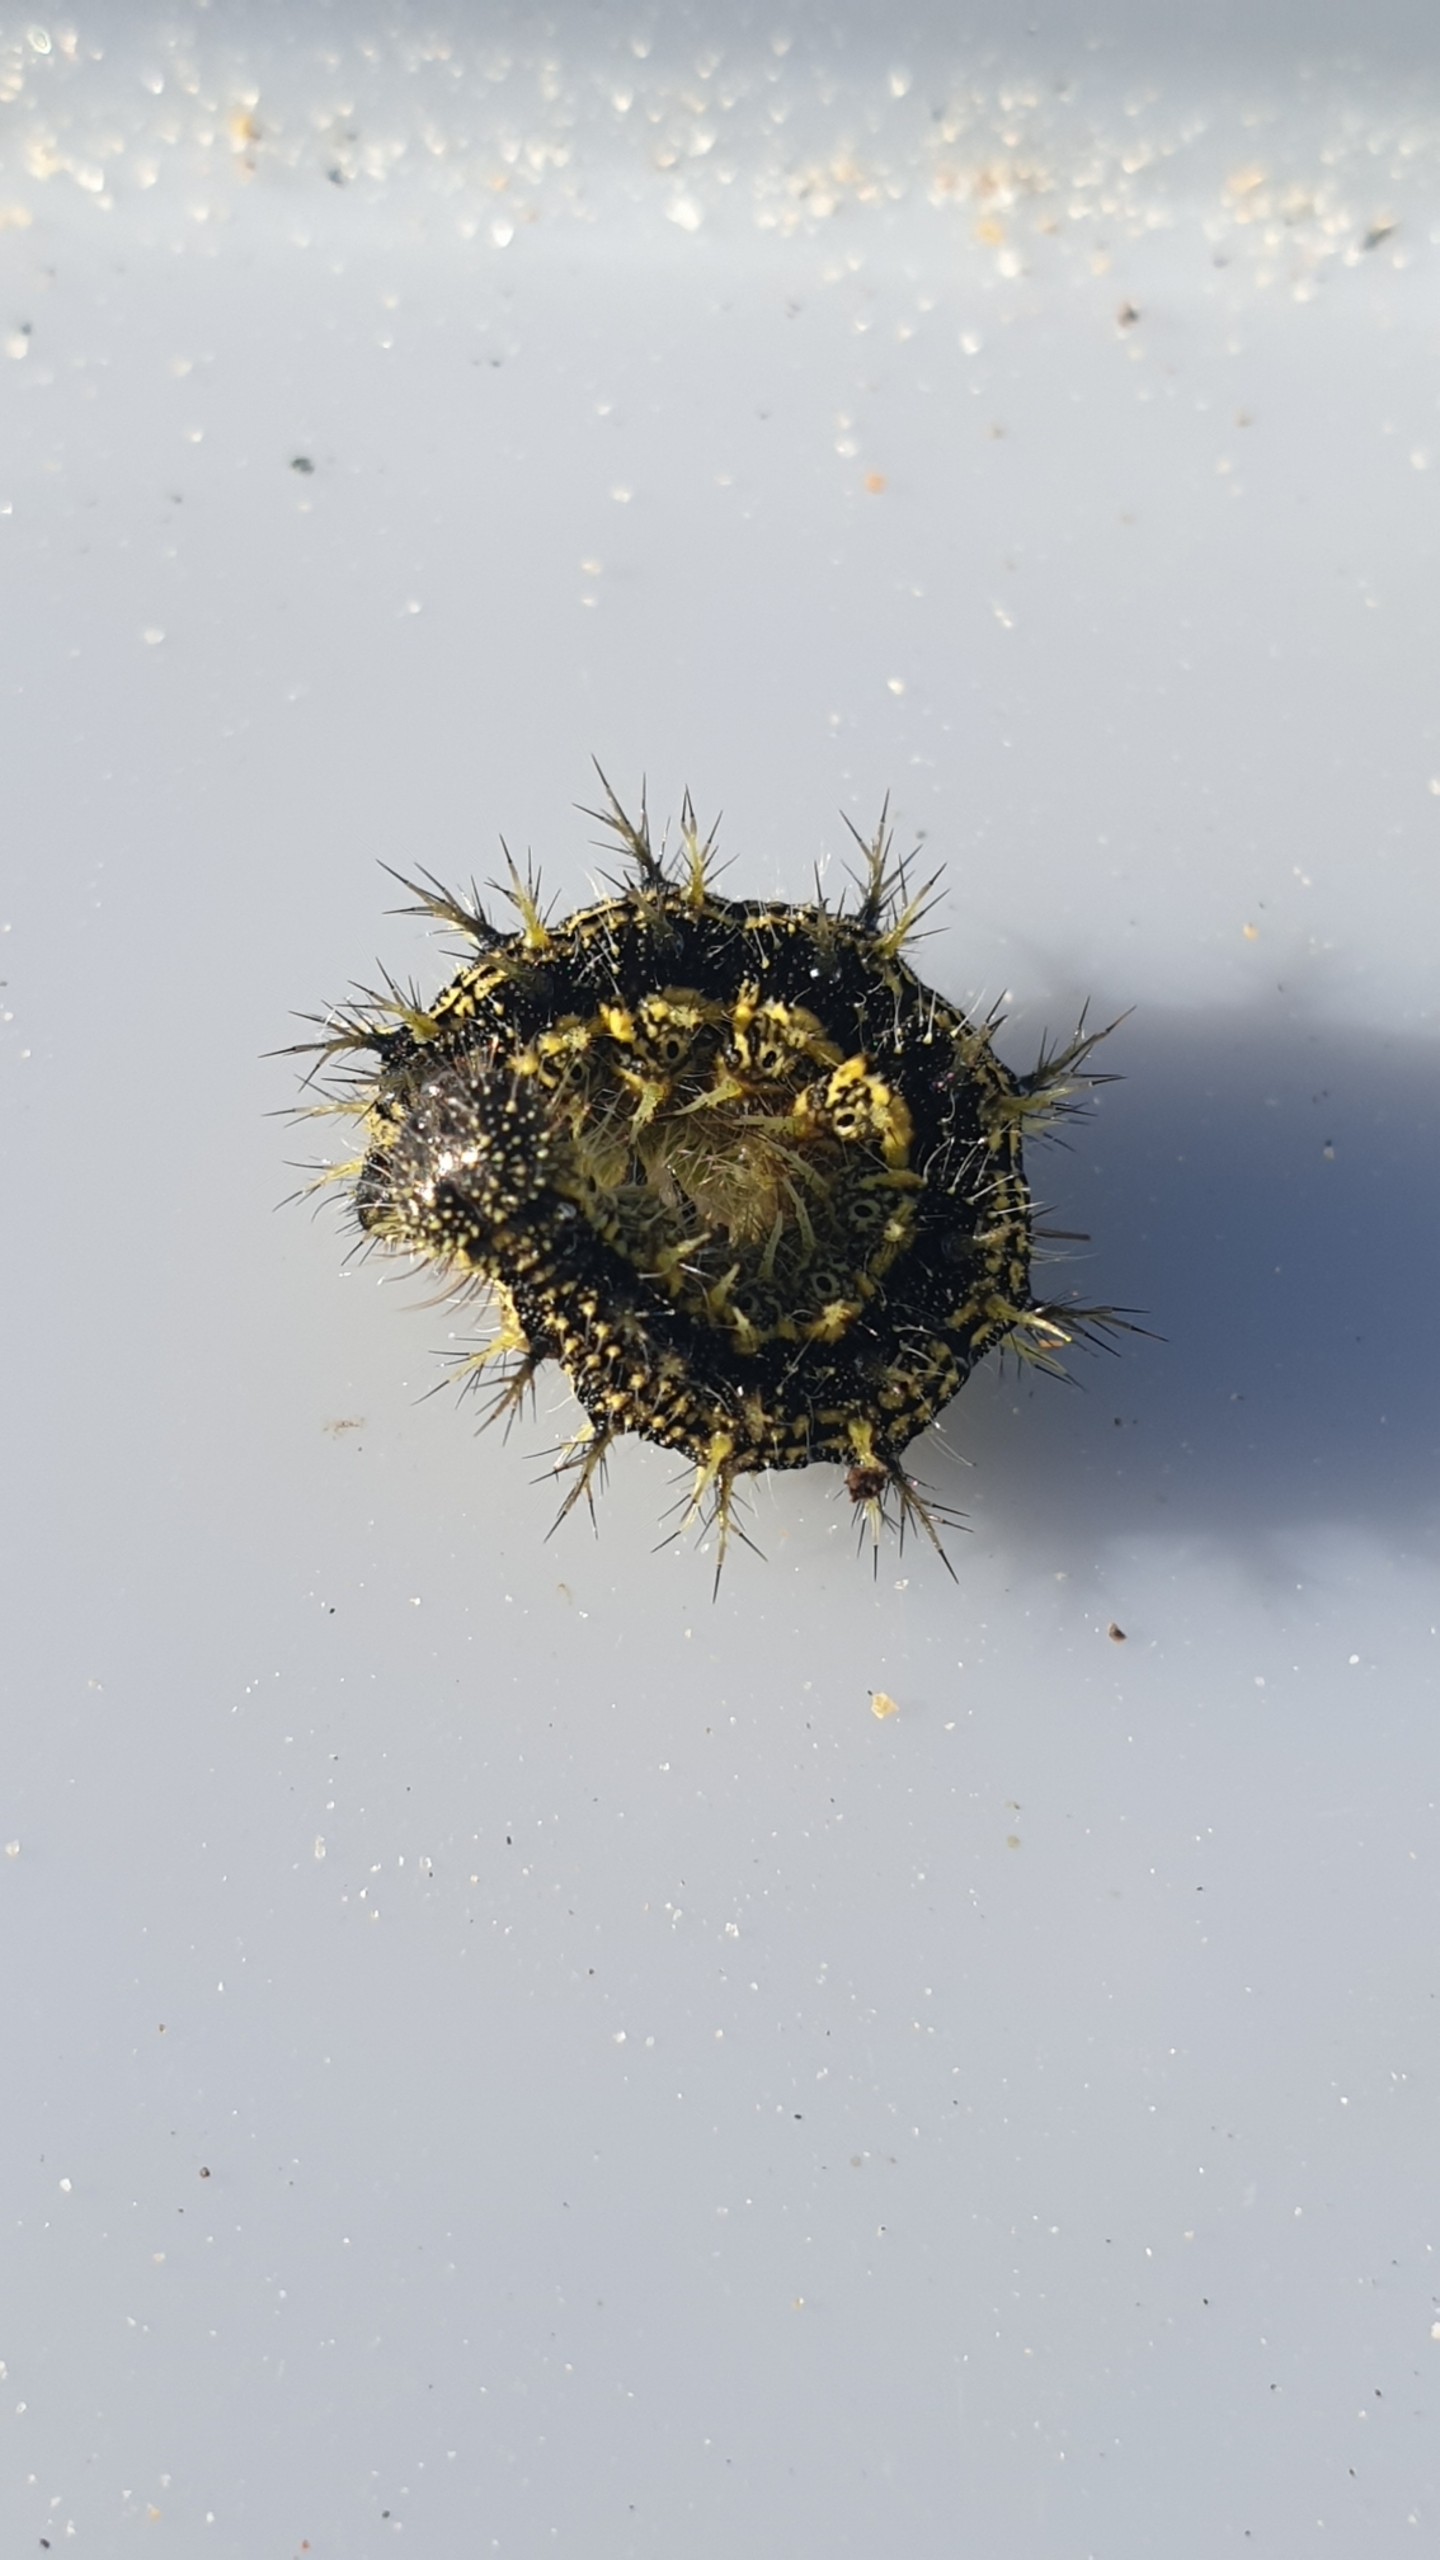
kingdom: Animalia
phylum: Arthropoda
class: Insecta
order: Lepidoptera
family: Nymphalidae
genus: Aglais
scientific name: Aglais urticae
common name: Nældens takvinge
